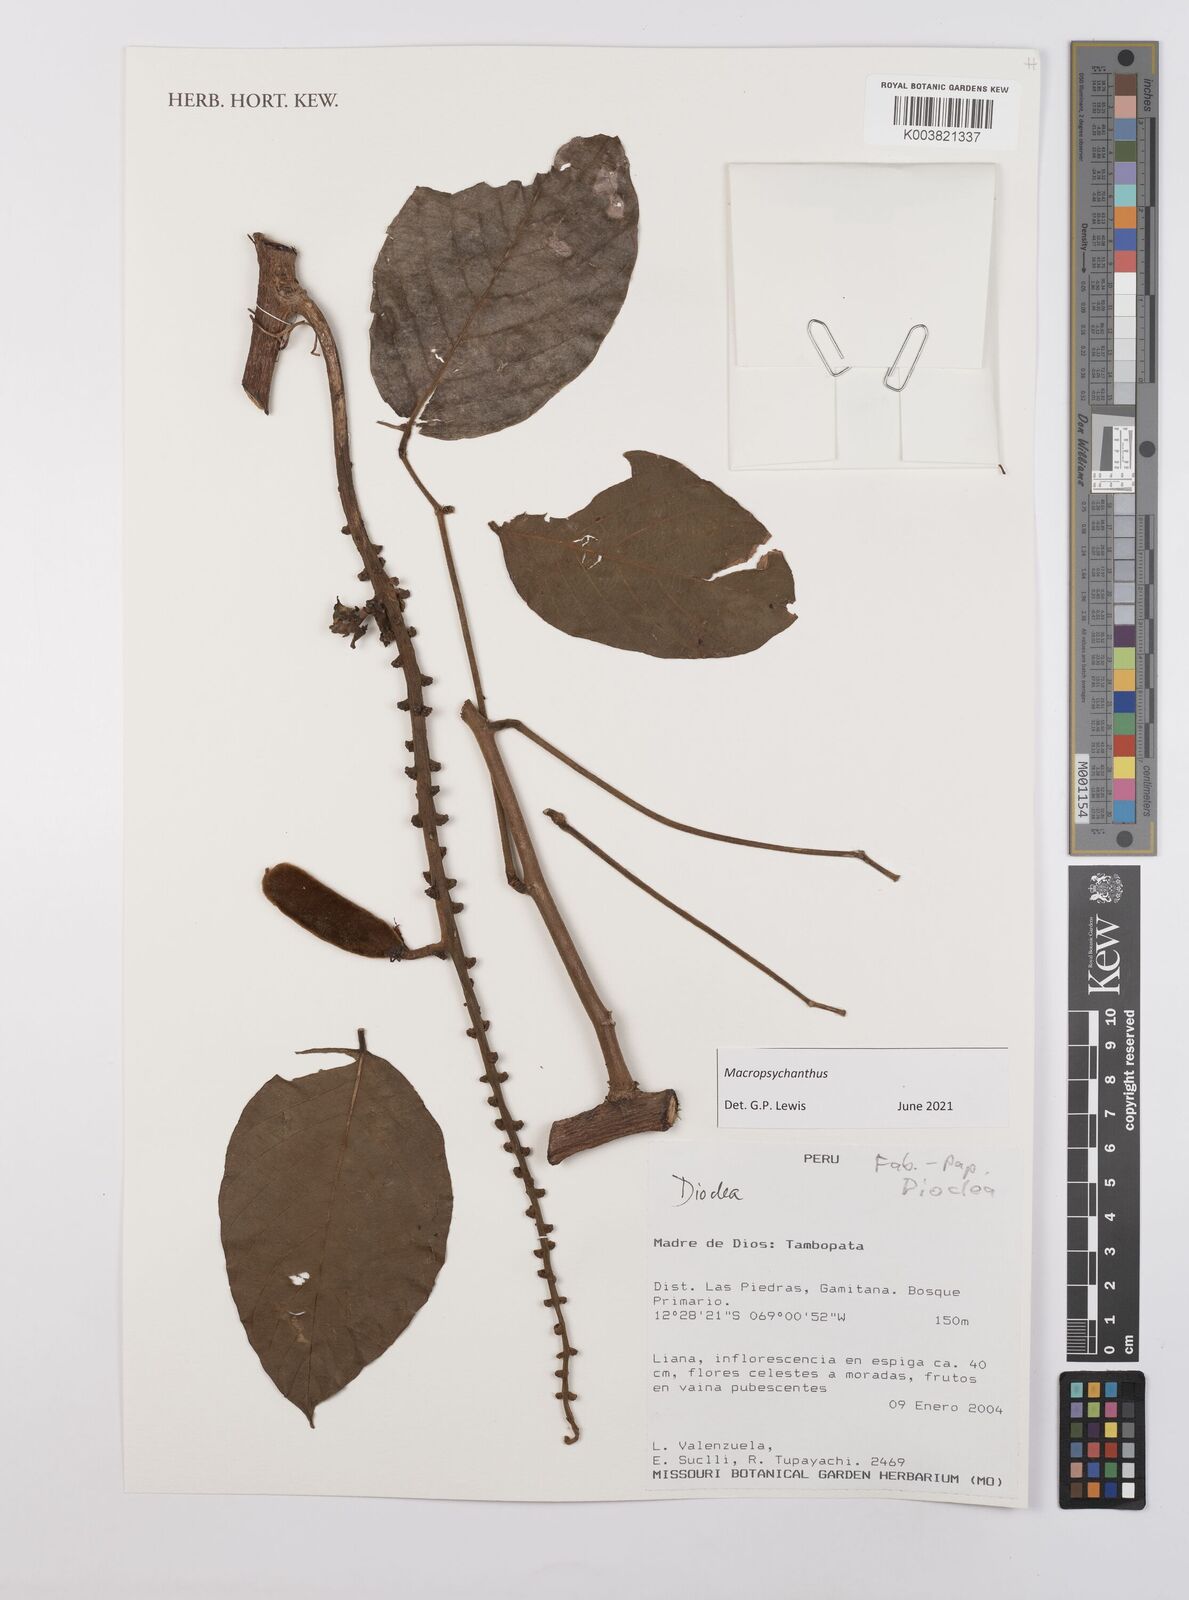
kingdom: Plantae
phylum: Tracheophyta
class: Magnoliopsida
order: Fabales
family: Fabaceae
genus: Macropsychanthus
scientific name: Macropsychanthus
